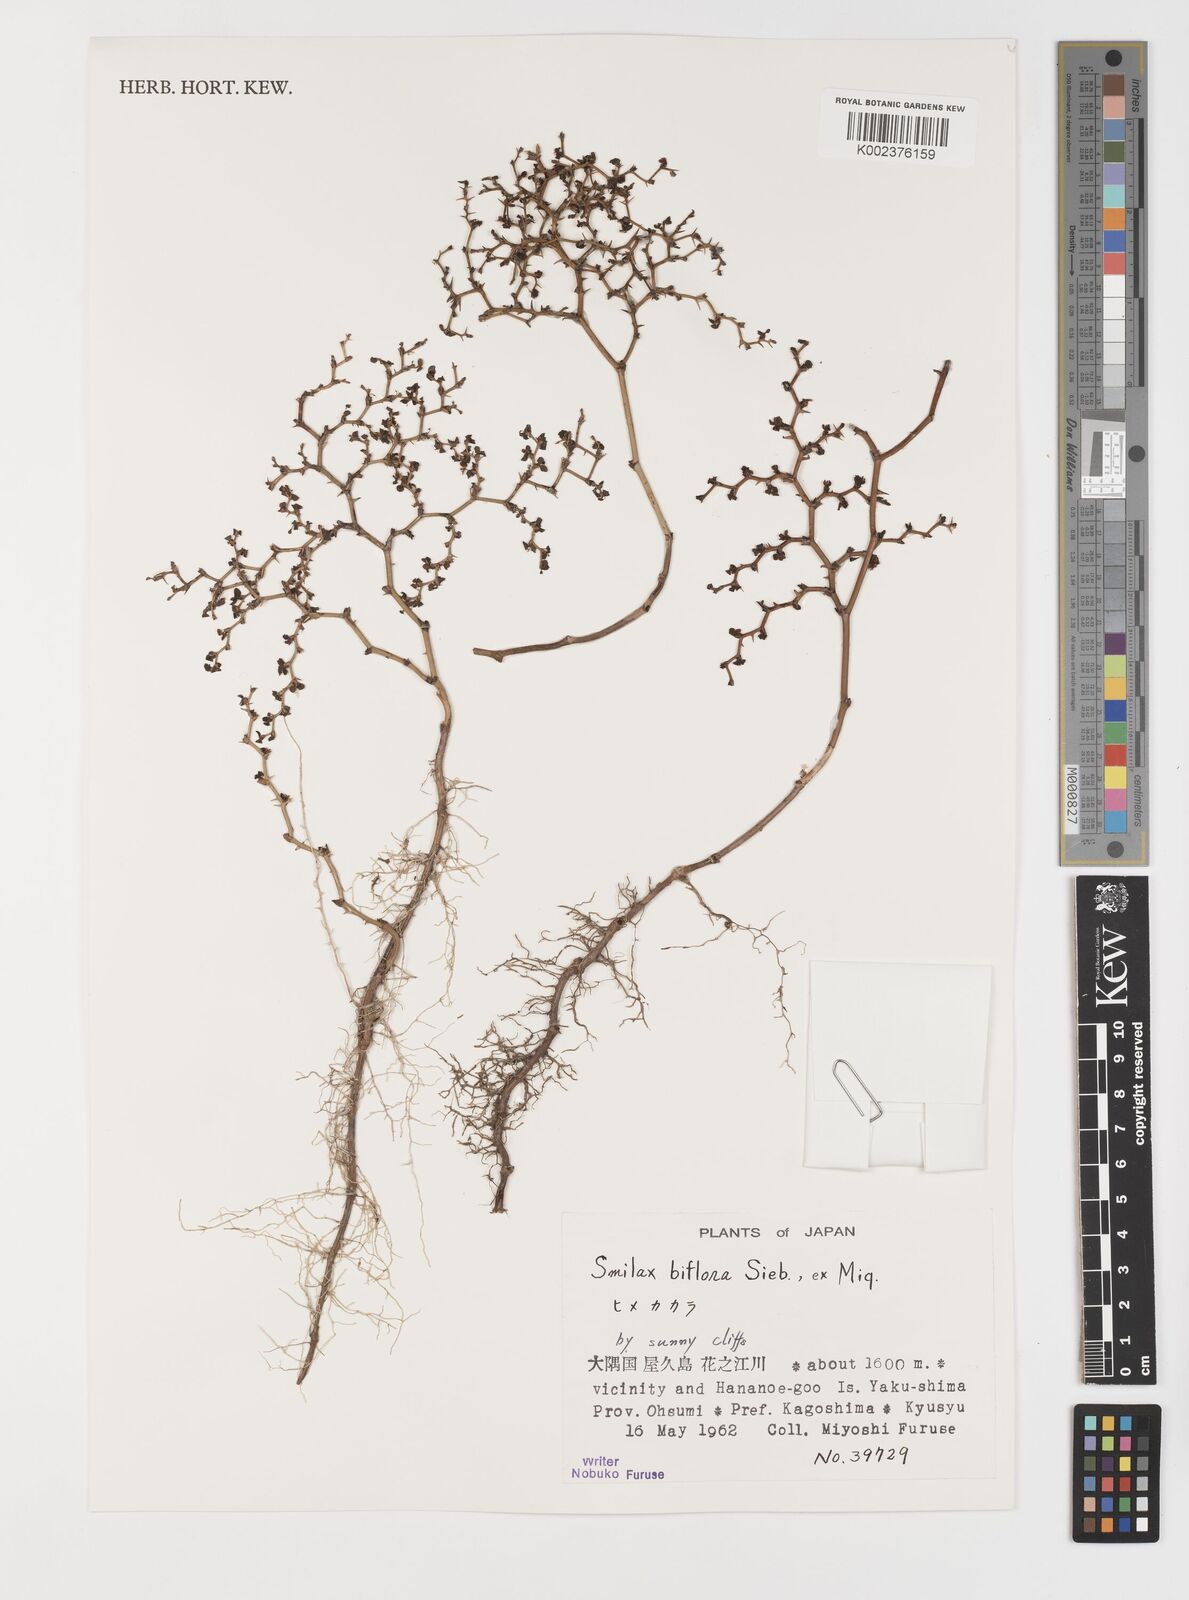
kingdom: Plantae
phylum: Tracheophyta
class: Liliopsida
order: Liliales
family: Smilacaceae
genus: Smilax
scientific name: Smilax biflora
